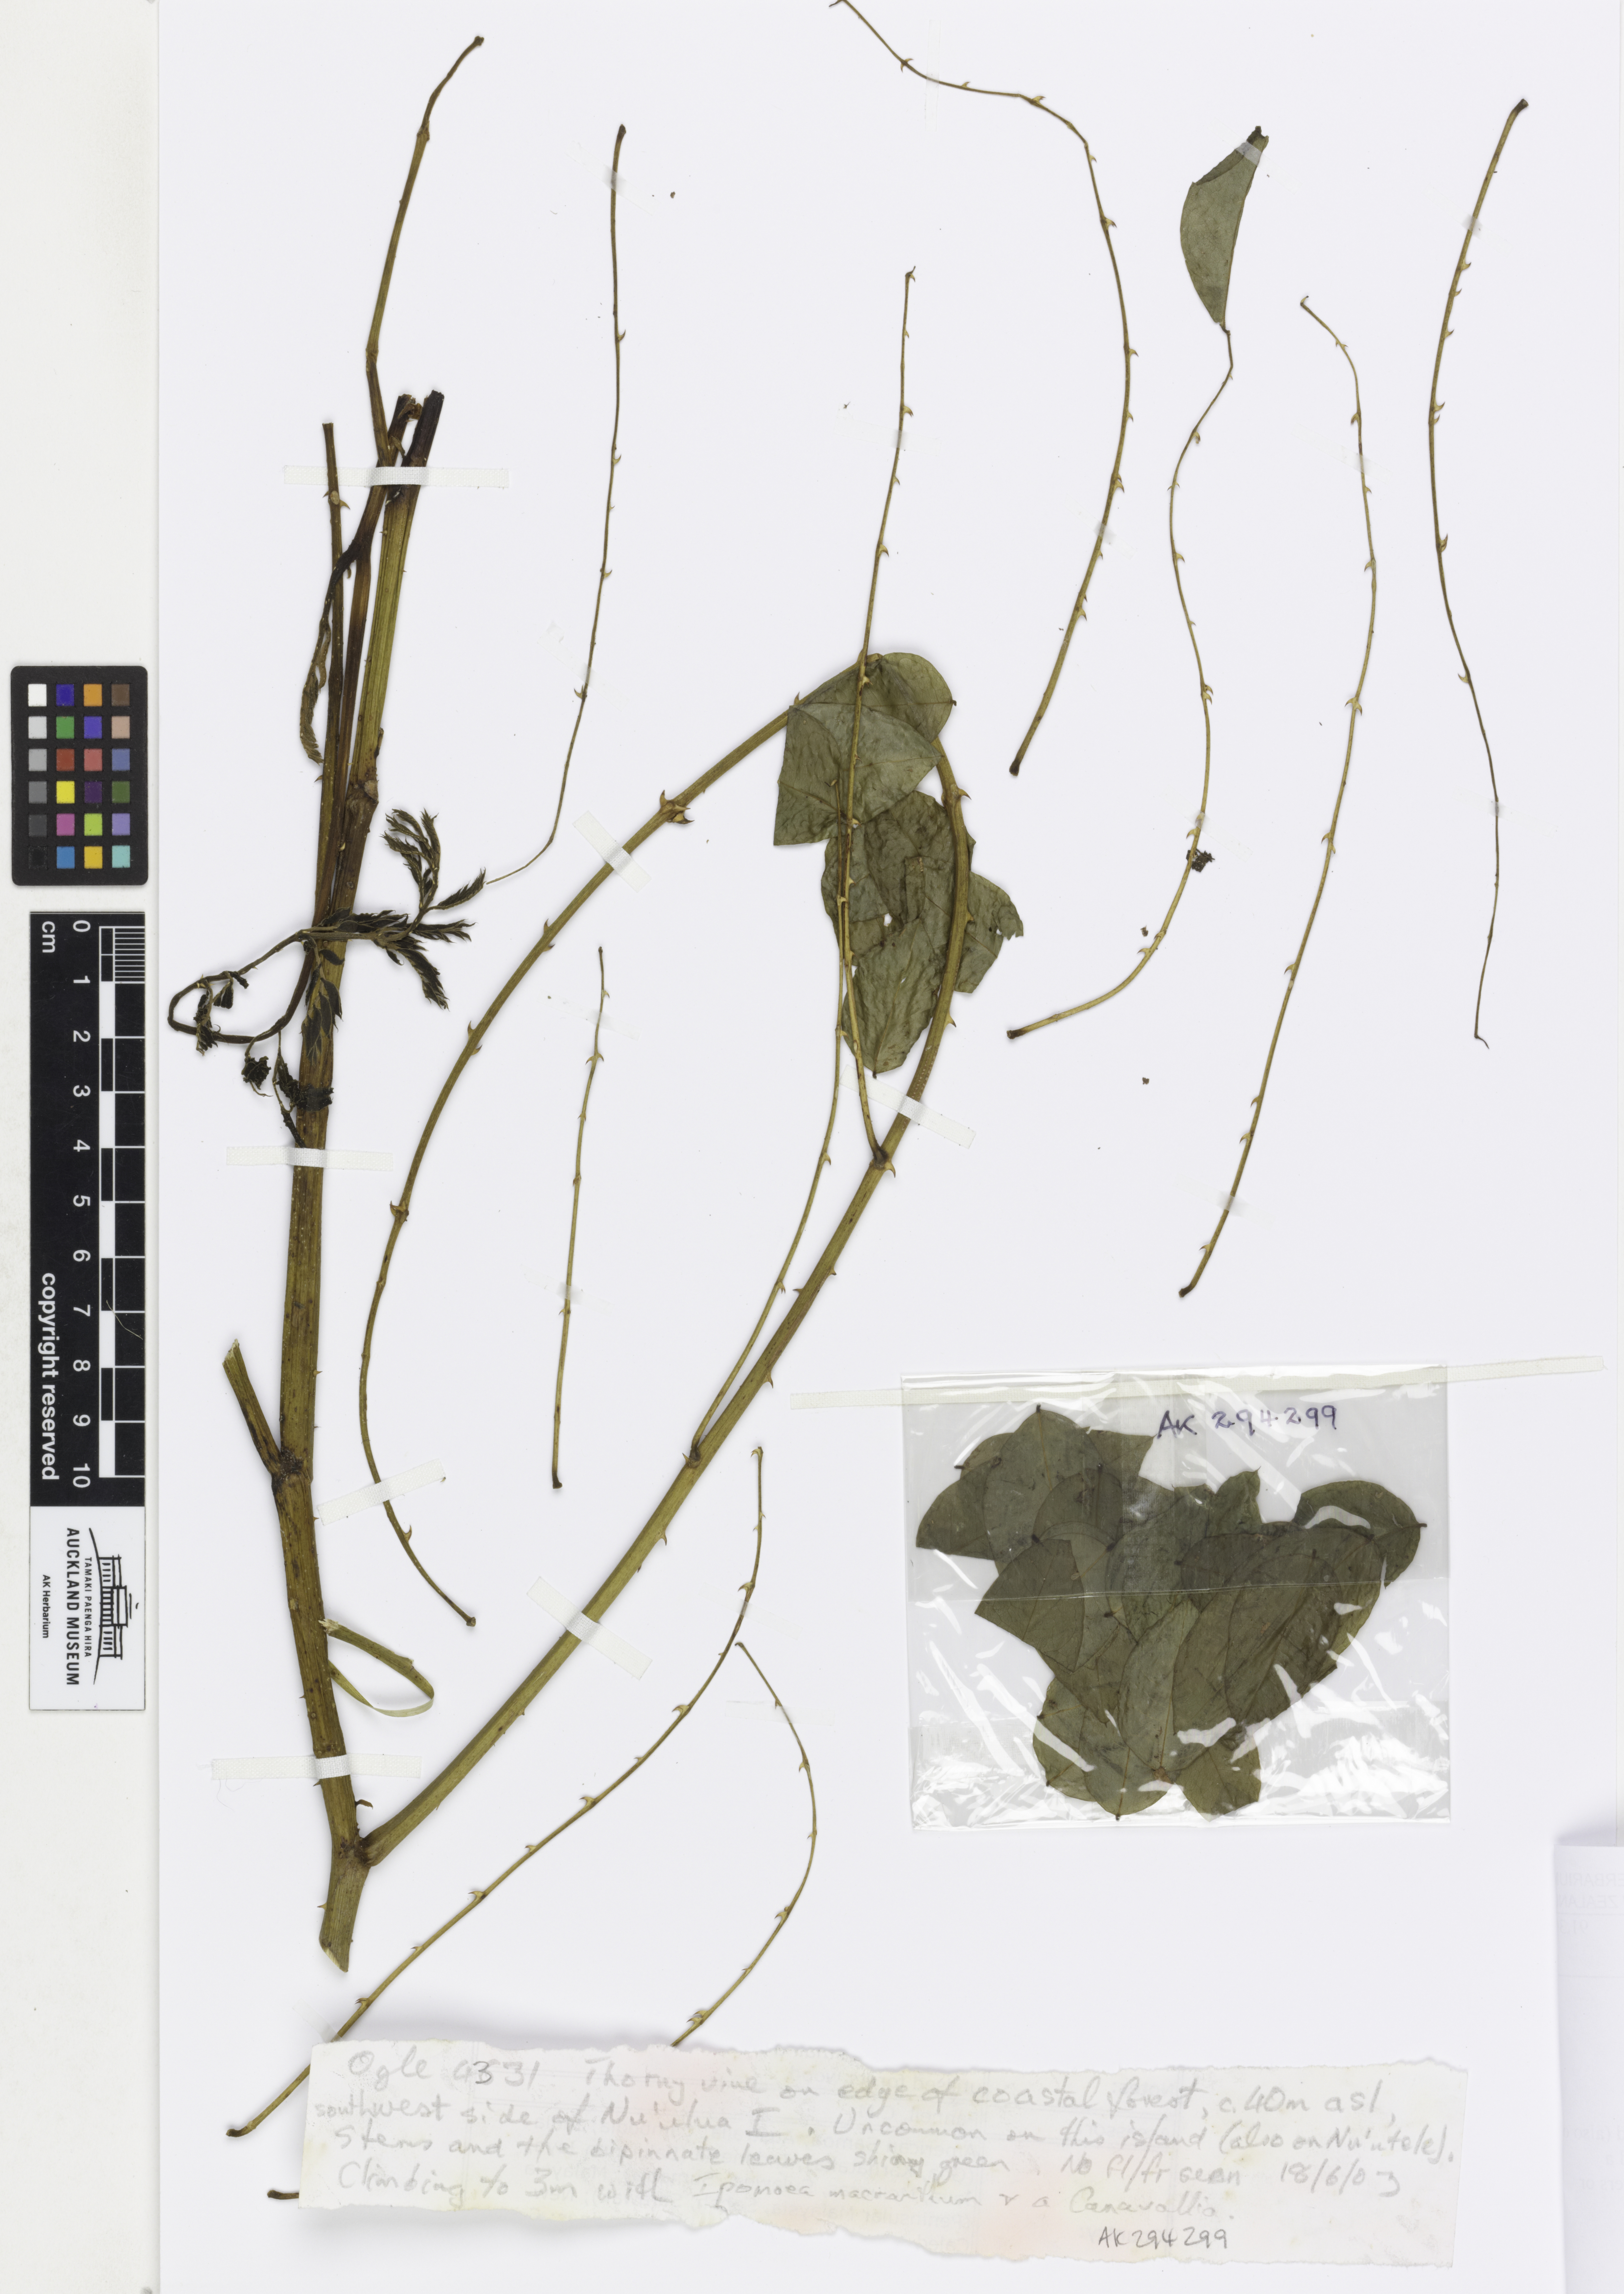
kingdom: Plantae
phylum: Tracheophyta
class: Magnoliopsida
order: Fabales
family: Fabaceae
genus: Caesalpinia
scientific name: Caesalpinia
